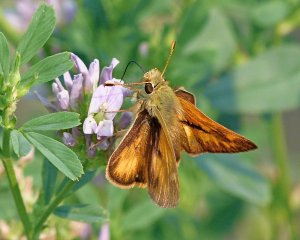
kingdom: Animalia
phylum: Arthropoda
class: Insecta
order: Lepidoptera
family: Hesperiidae
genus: Ochlodes
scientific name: Ochlodes sylvanoides
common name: Woodland Skipper
